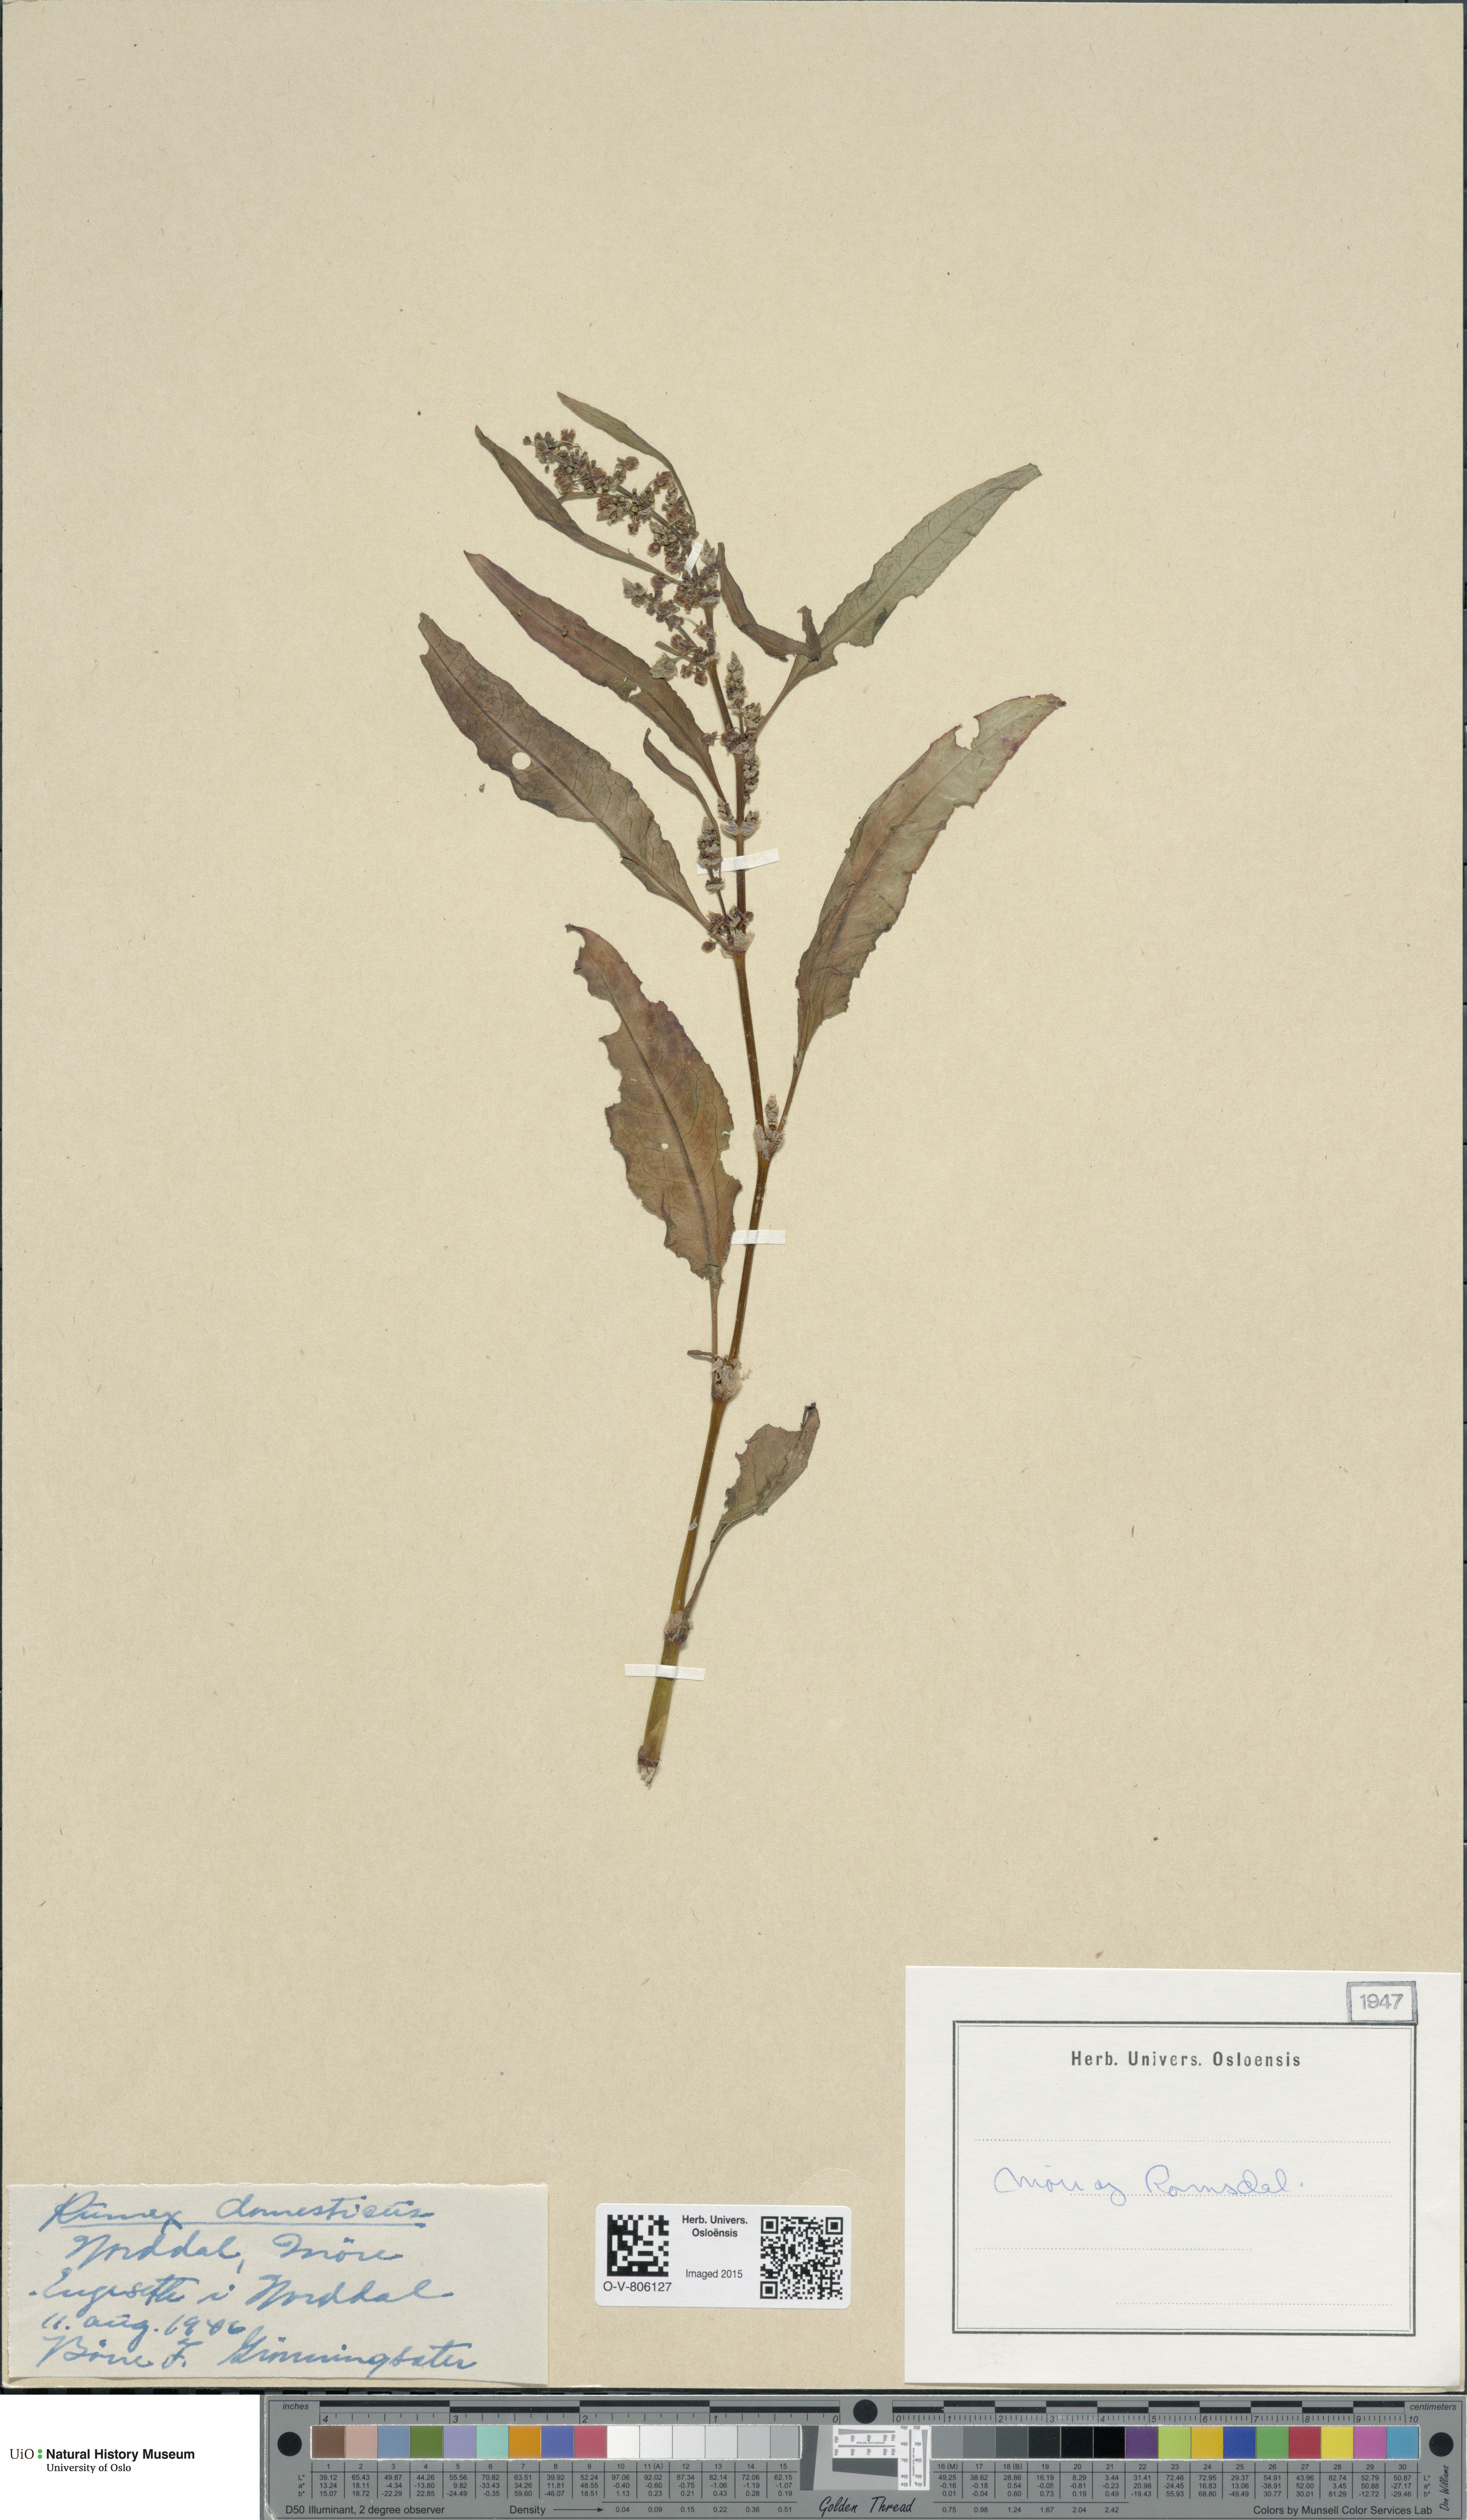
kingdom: Plantae
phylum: Tracheophyta
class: Magnoliopsida
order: Caryophyllales
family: Polygonaceae
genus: Rumex
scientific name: Rumex longifolius
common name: Dooryard dock
